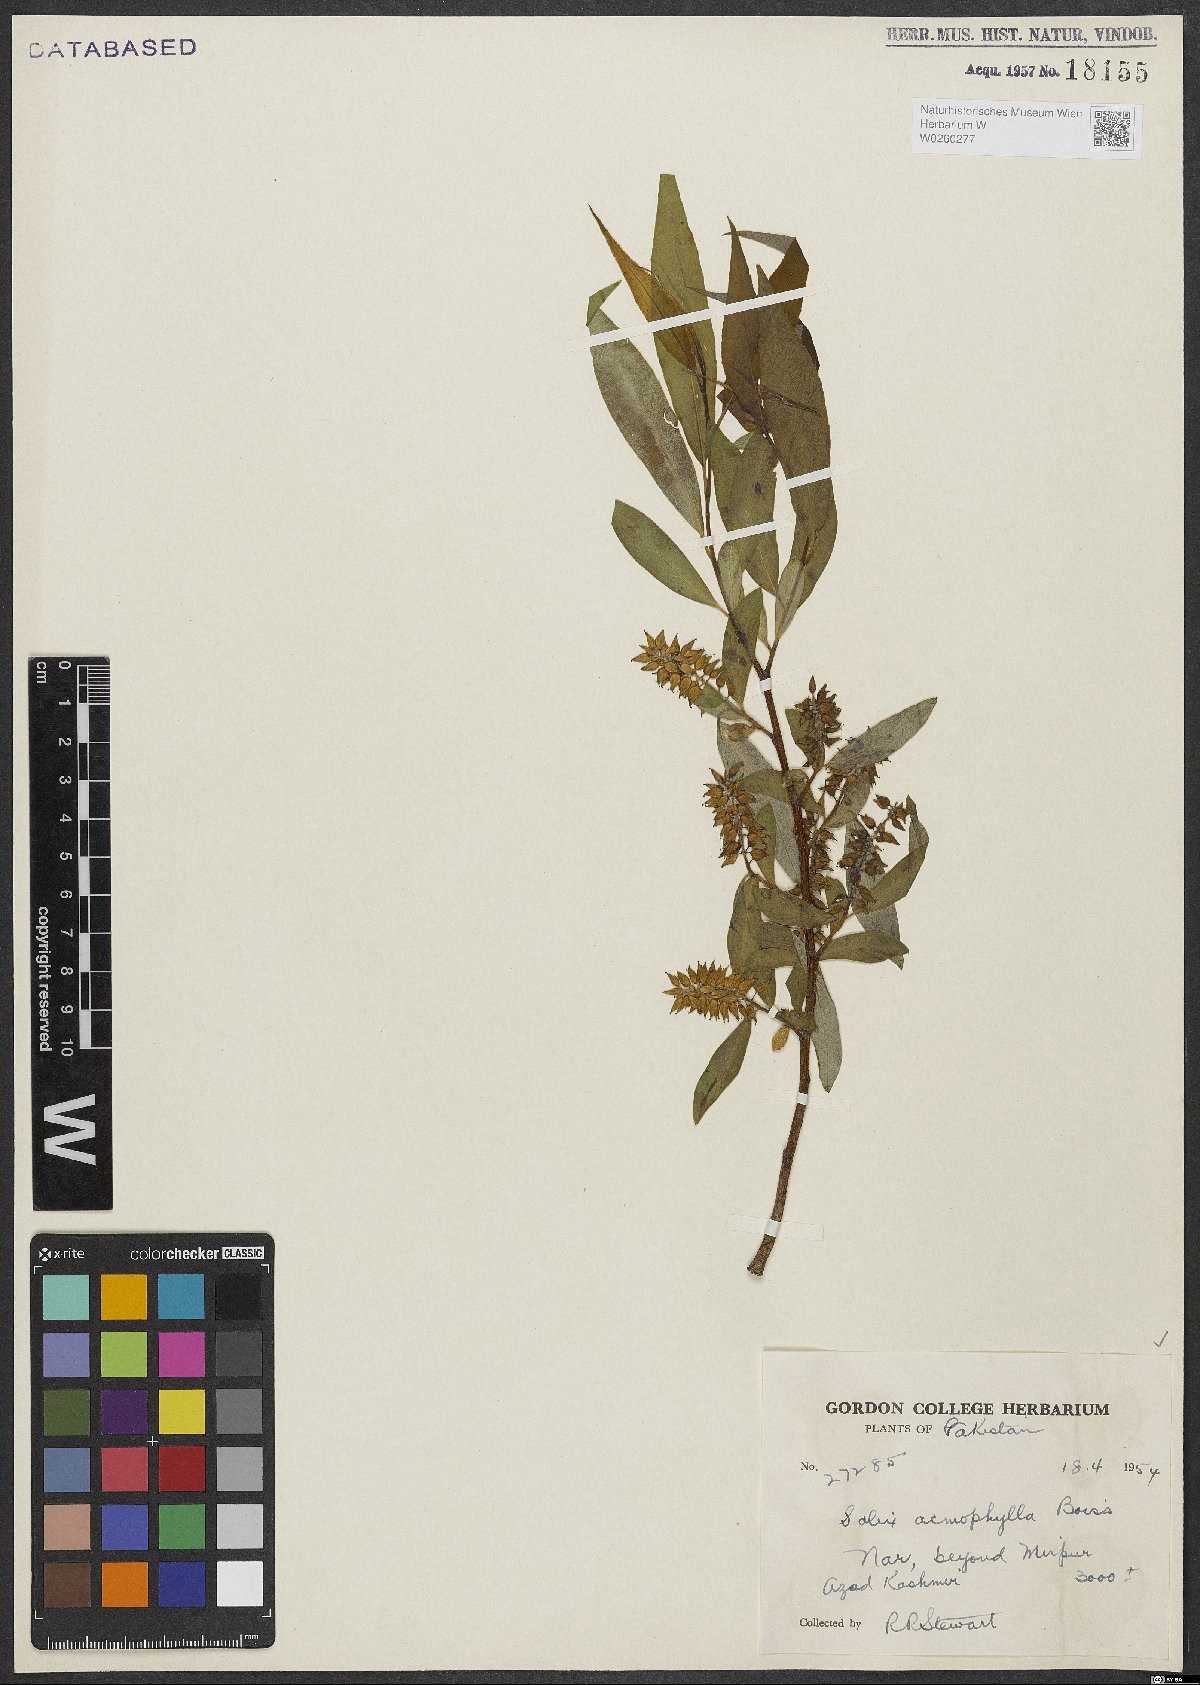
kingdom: Plantae
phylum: Tracheophyta
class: Magnoliopsida
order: Malpighiales
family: Salicaceae
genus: Salix
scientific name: Salix acmophylla
